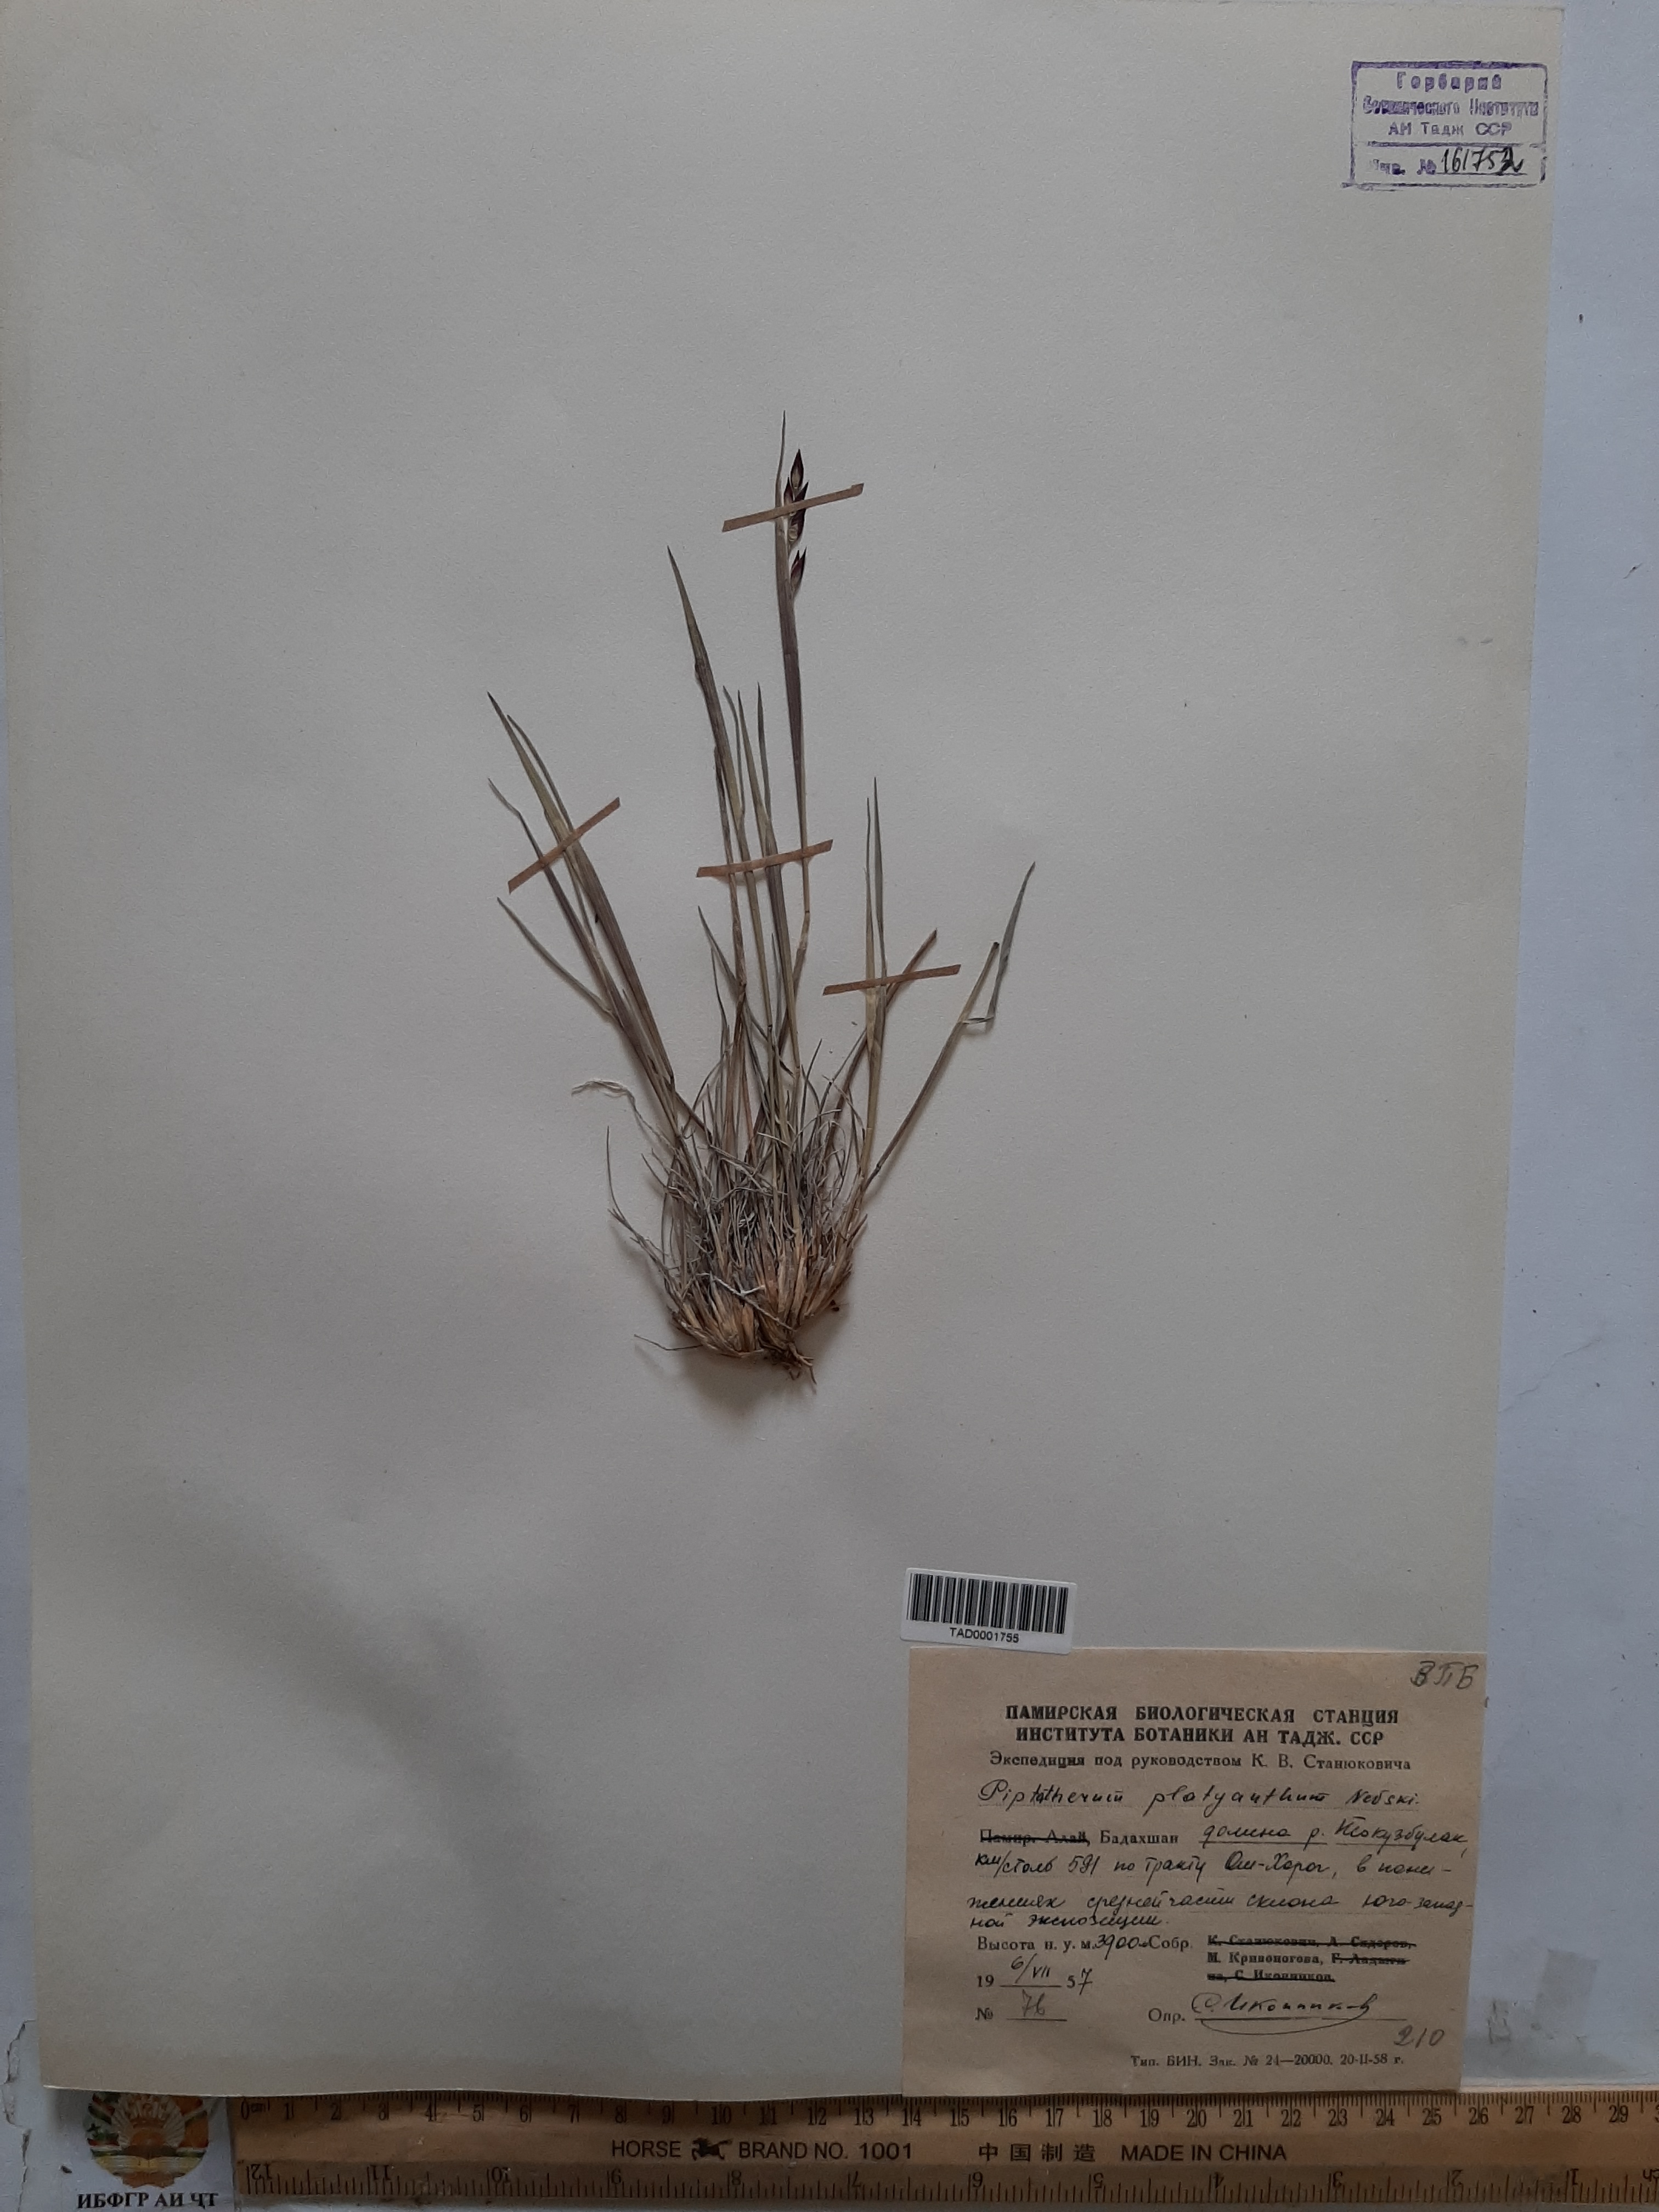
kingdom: Plantae
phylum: Tracheophyta
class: Liliopsida
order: Poales
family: Poaceae
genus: Piptatherum
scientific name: Piptatherum platyanthum
